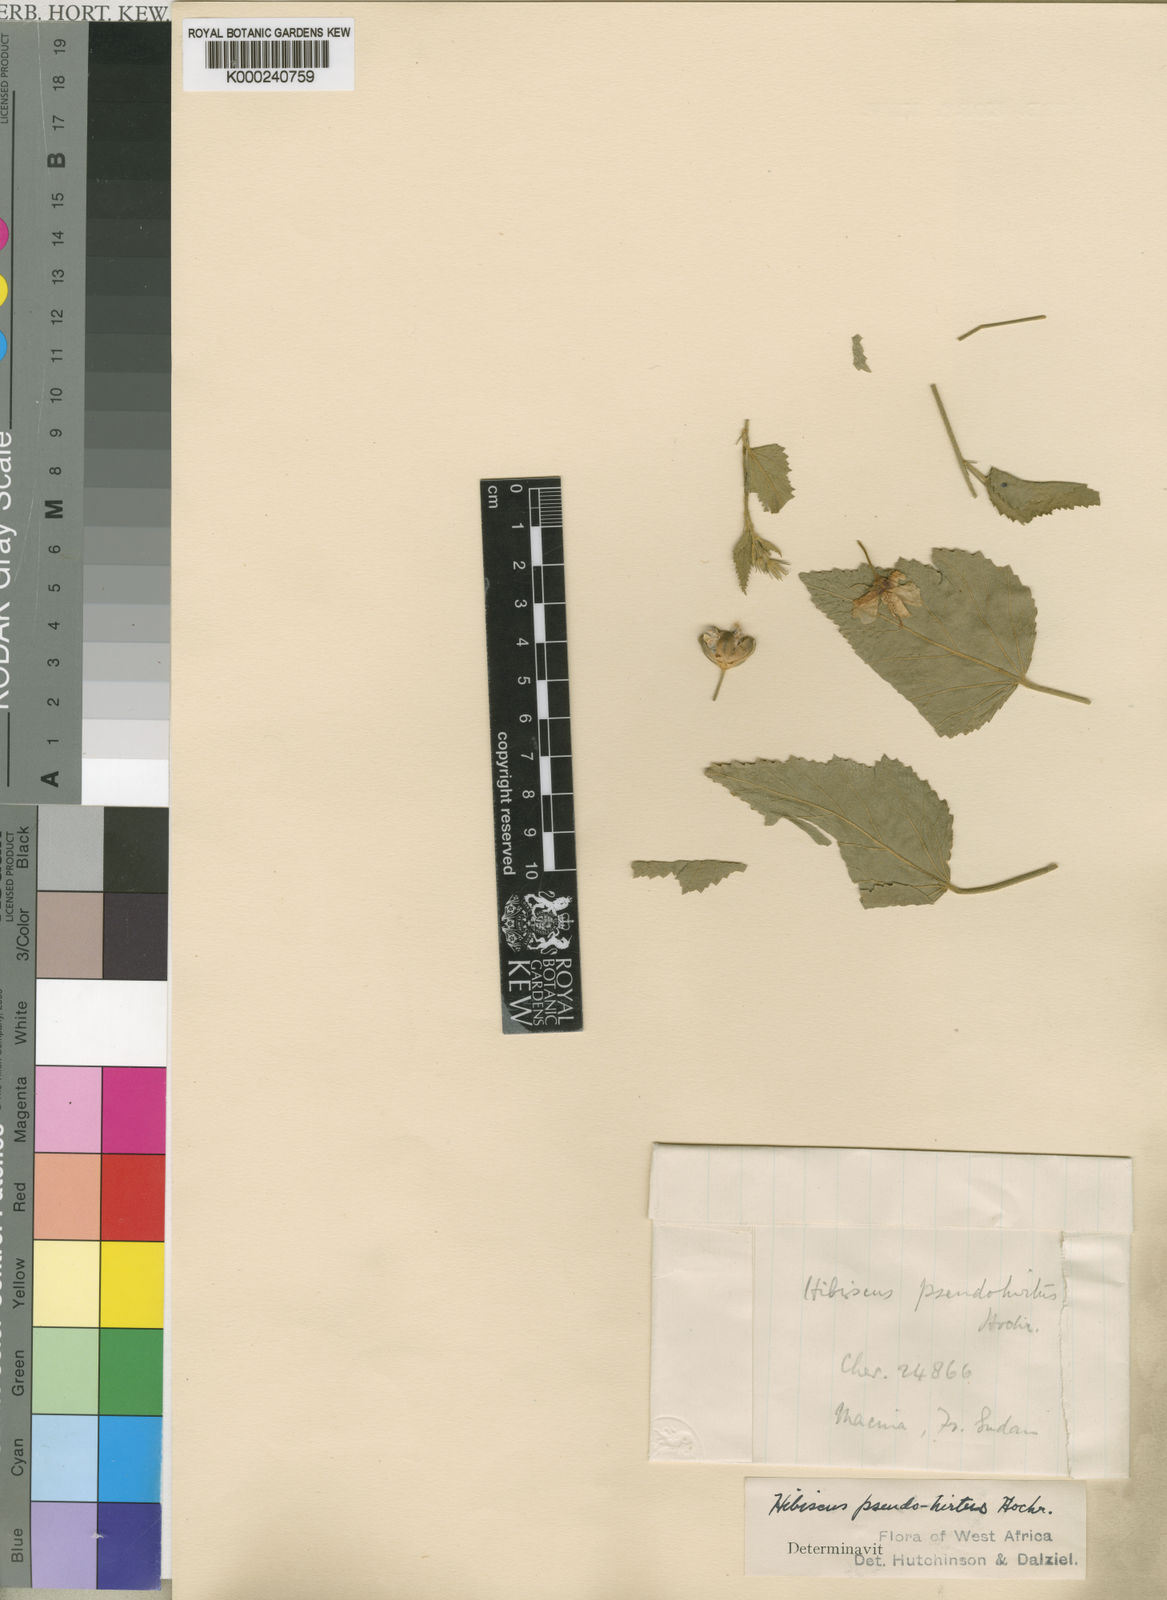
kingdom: Plantae
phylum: Tracheophyta
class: Magnoliopsida
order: Malvales
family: Malvaceae
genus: Hibiscus
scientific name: Hibiscus pseudohirtus
